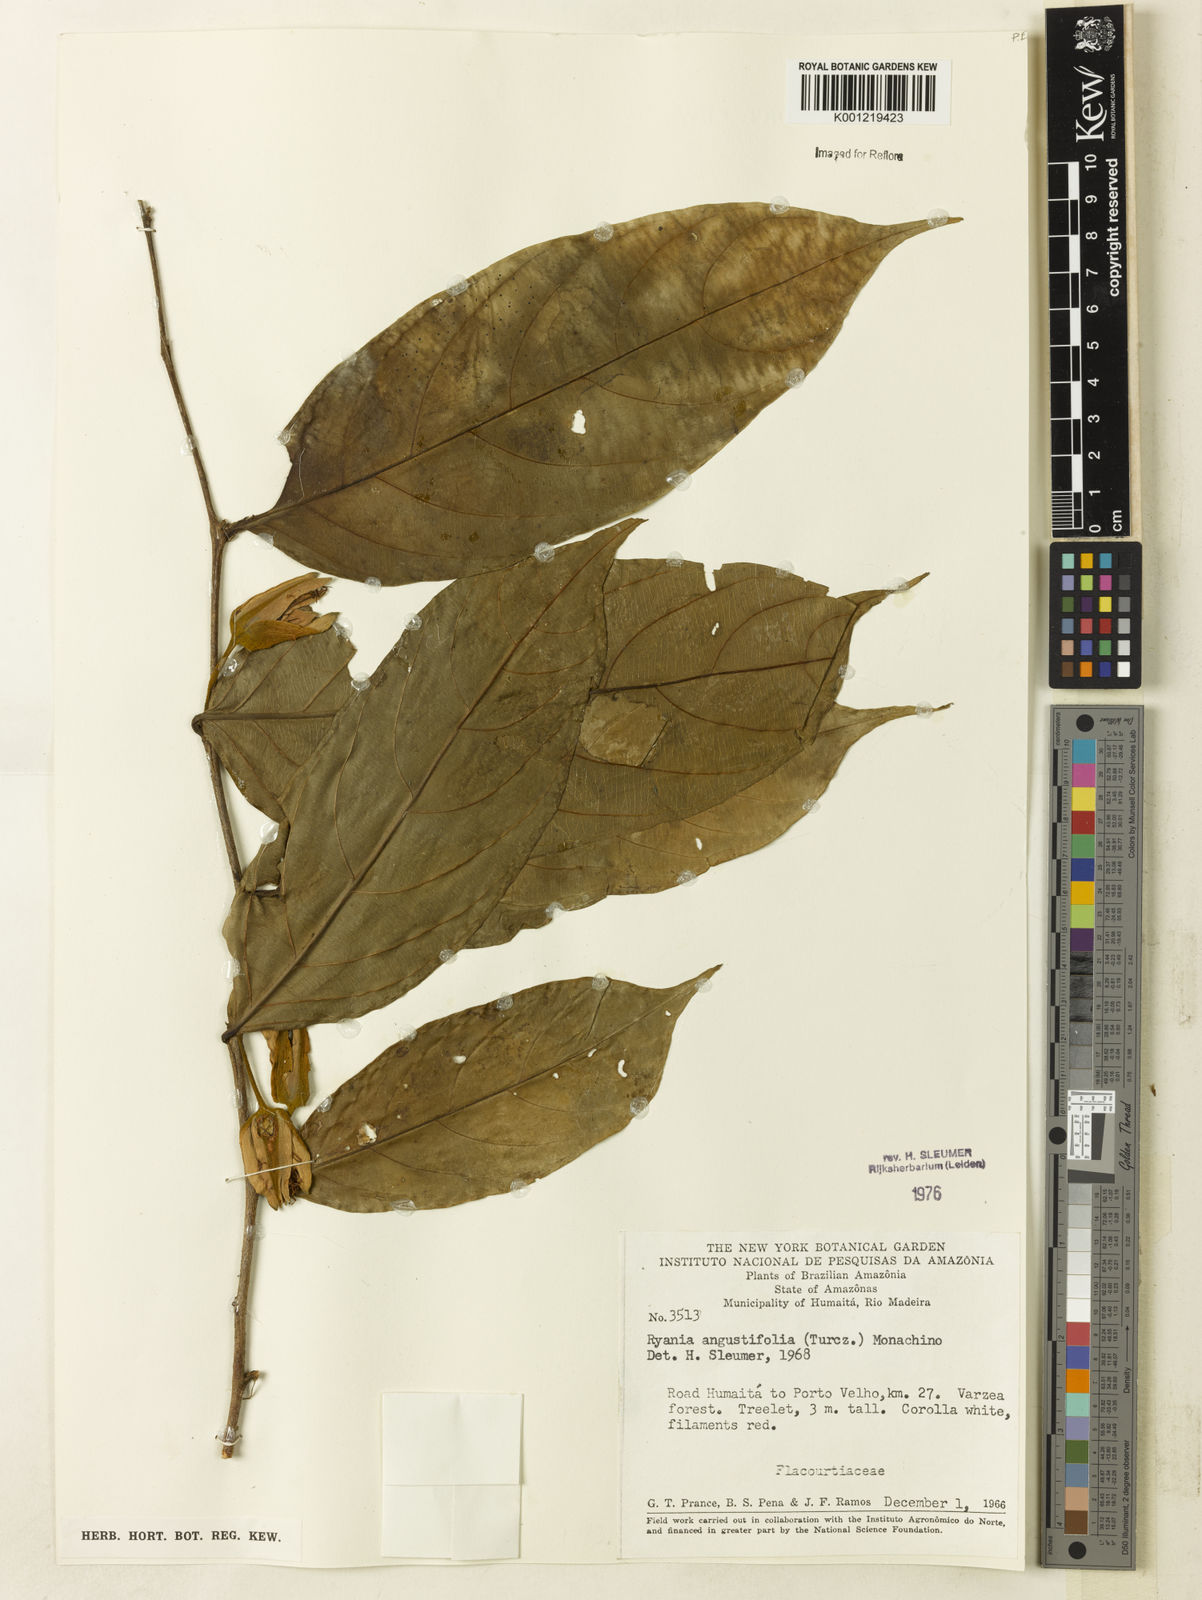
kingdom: Plantae
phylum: Tracheophyta
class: Magnoliopsida
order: Malpighiales
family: Salicaceae
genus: Ryania
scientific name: Ryania angustifolia
